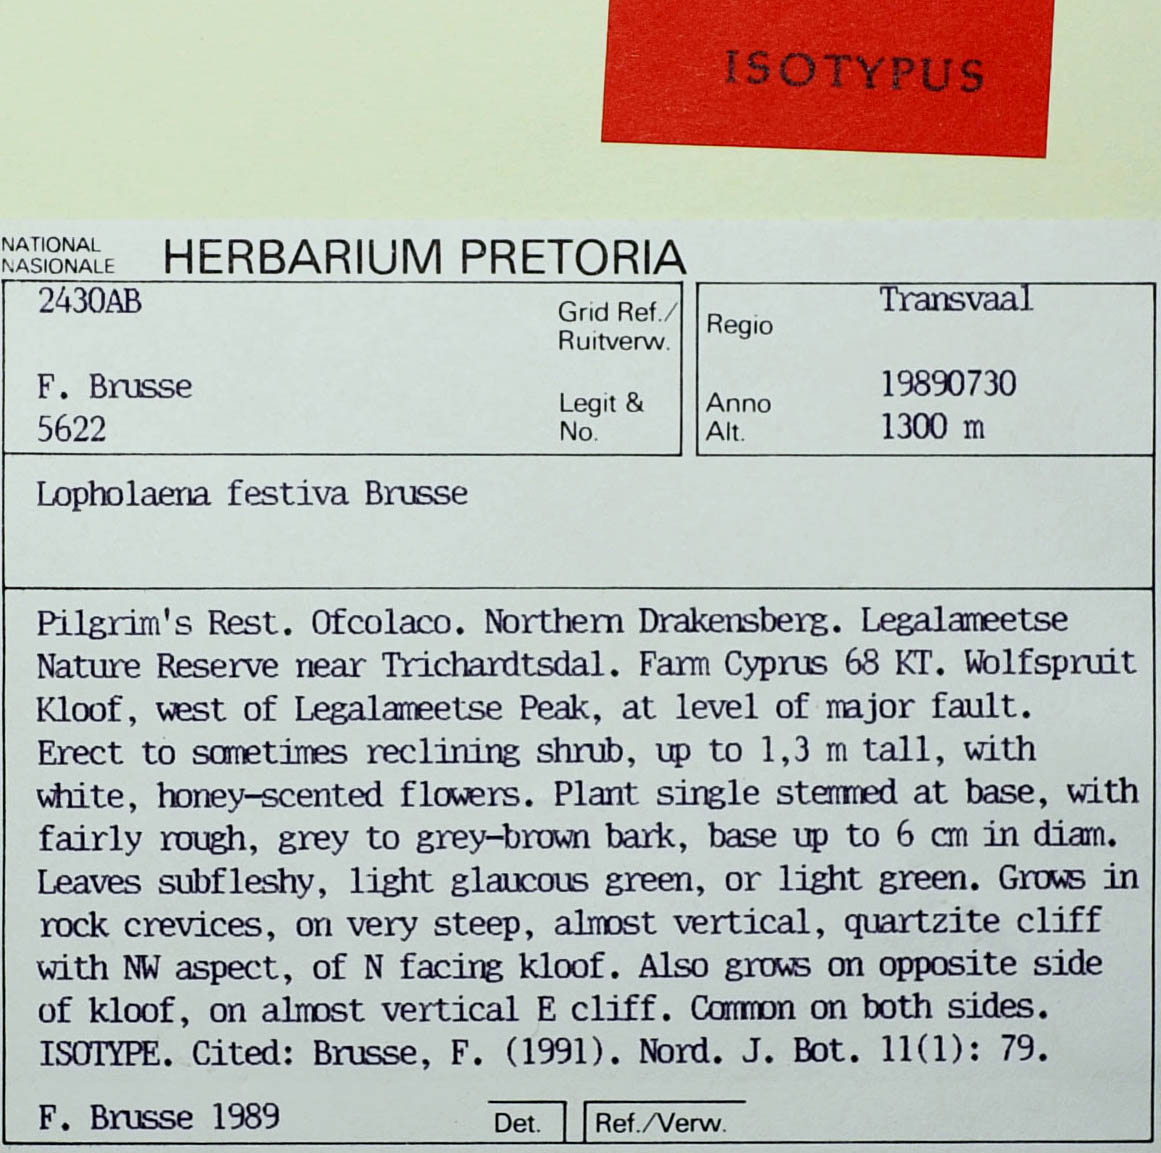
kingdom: Plantae
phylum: Tracheophyta
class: Magnoliopsida
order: Asterales
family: Asteraceae
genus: Lopholaena
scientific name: Lopholaena festiva
